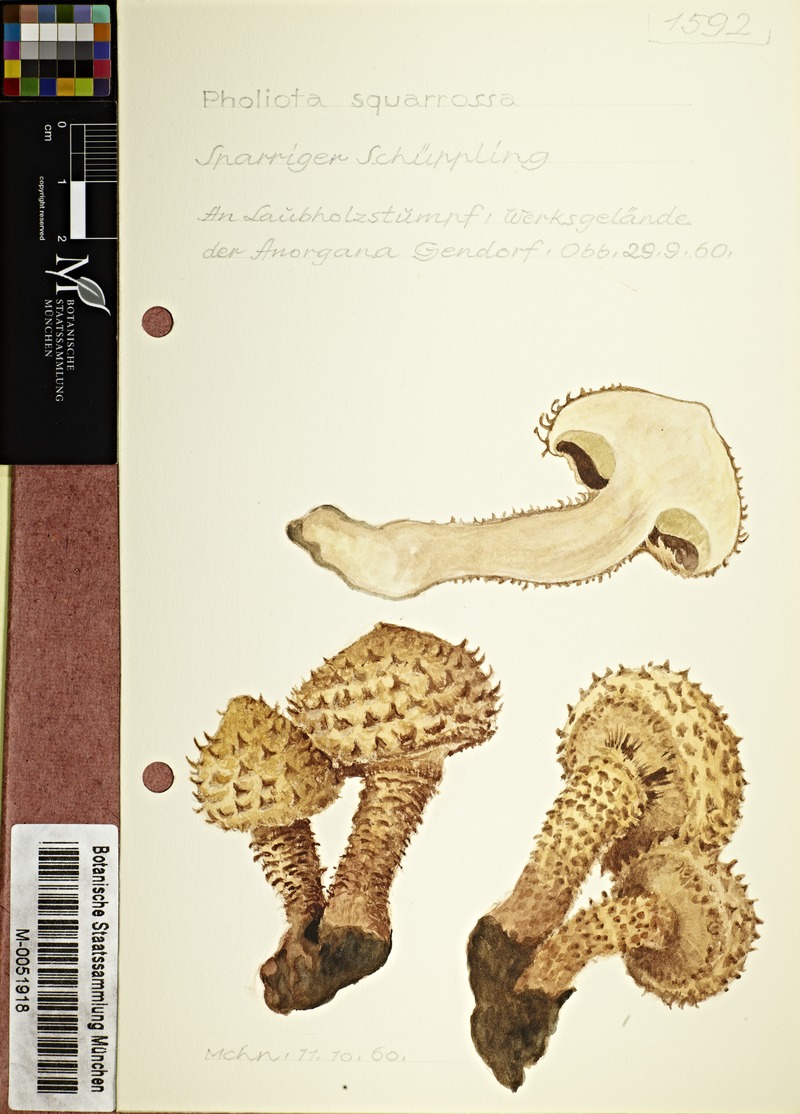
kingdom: Fungi
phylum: Basidiomycota
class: Agaricomycetes
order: Agaricales
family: Strophariaceae
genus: Pholiota
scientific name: Pholiota squarrosa
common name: Shaggy pholiota
